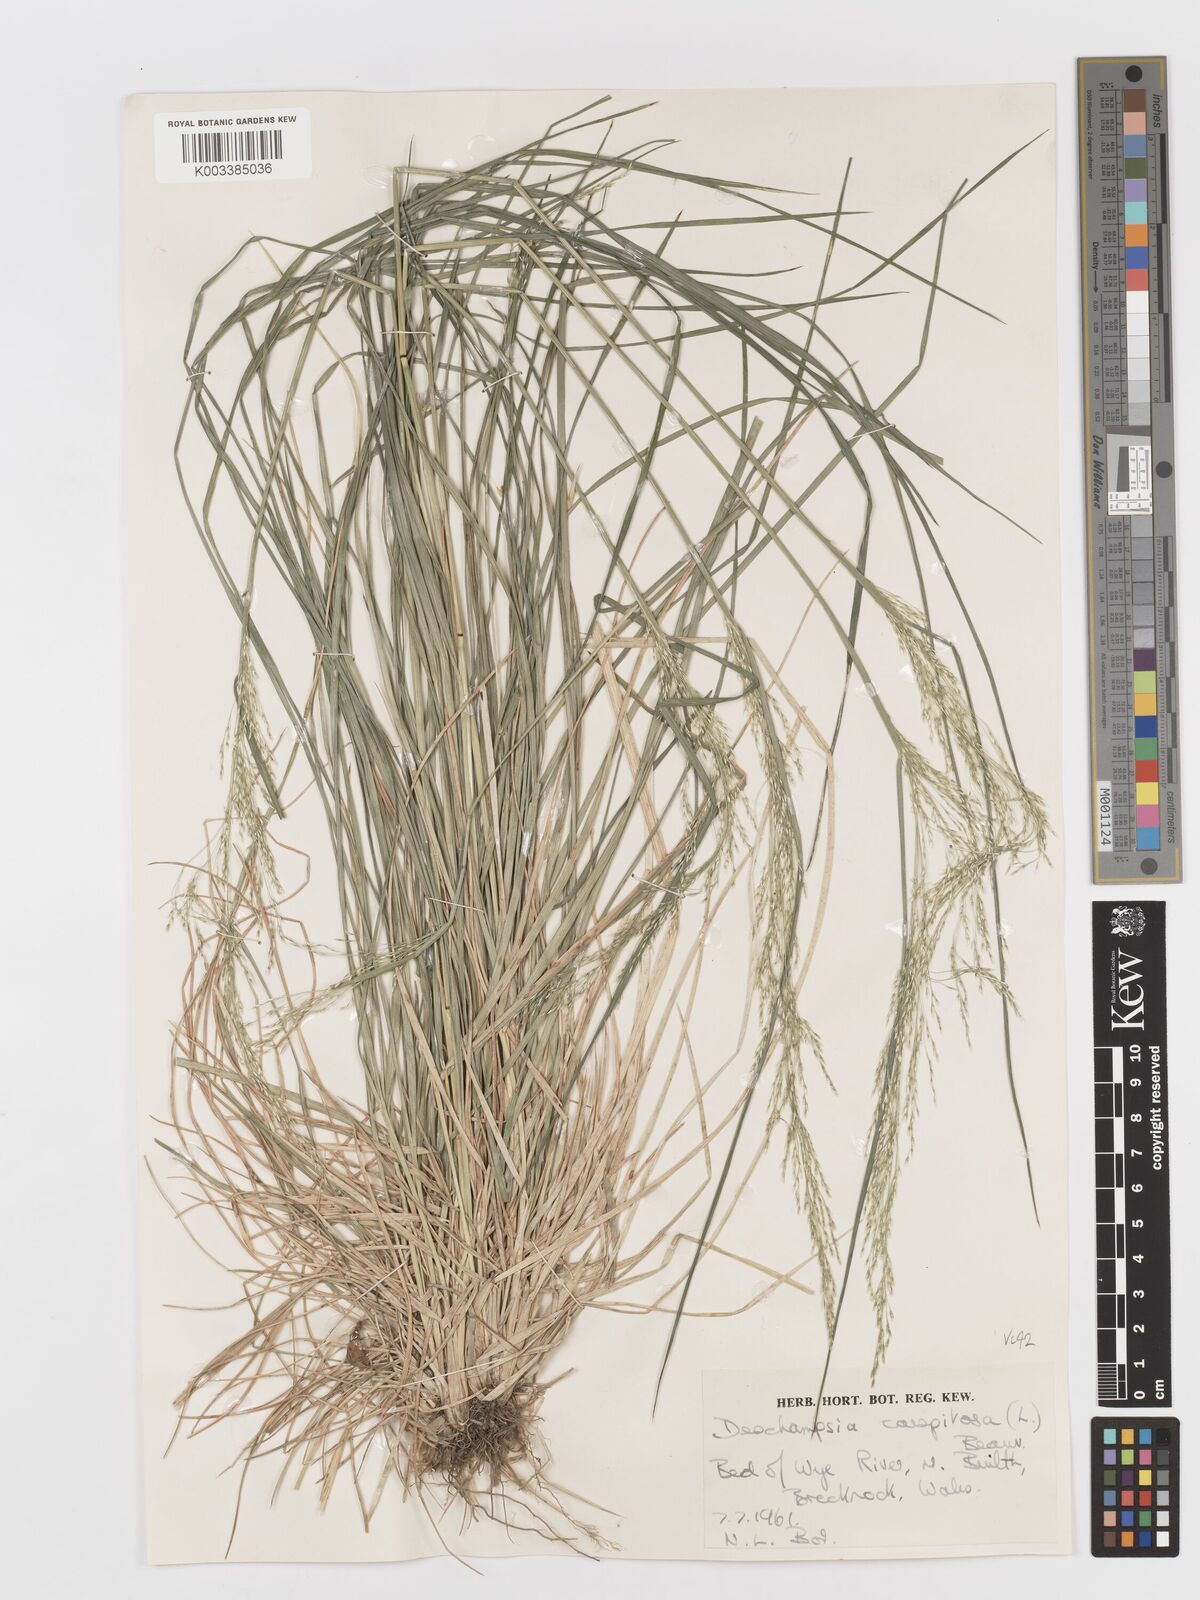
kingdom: Plantae
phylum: Tracheophyta
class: Liliopsida
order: Poales
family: Poaceae
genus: Deschampsia
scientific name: Deschampsia cespitosa
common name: Tufted hair-grass
